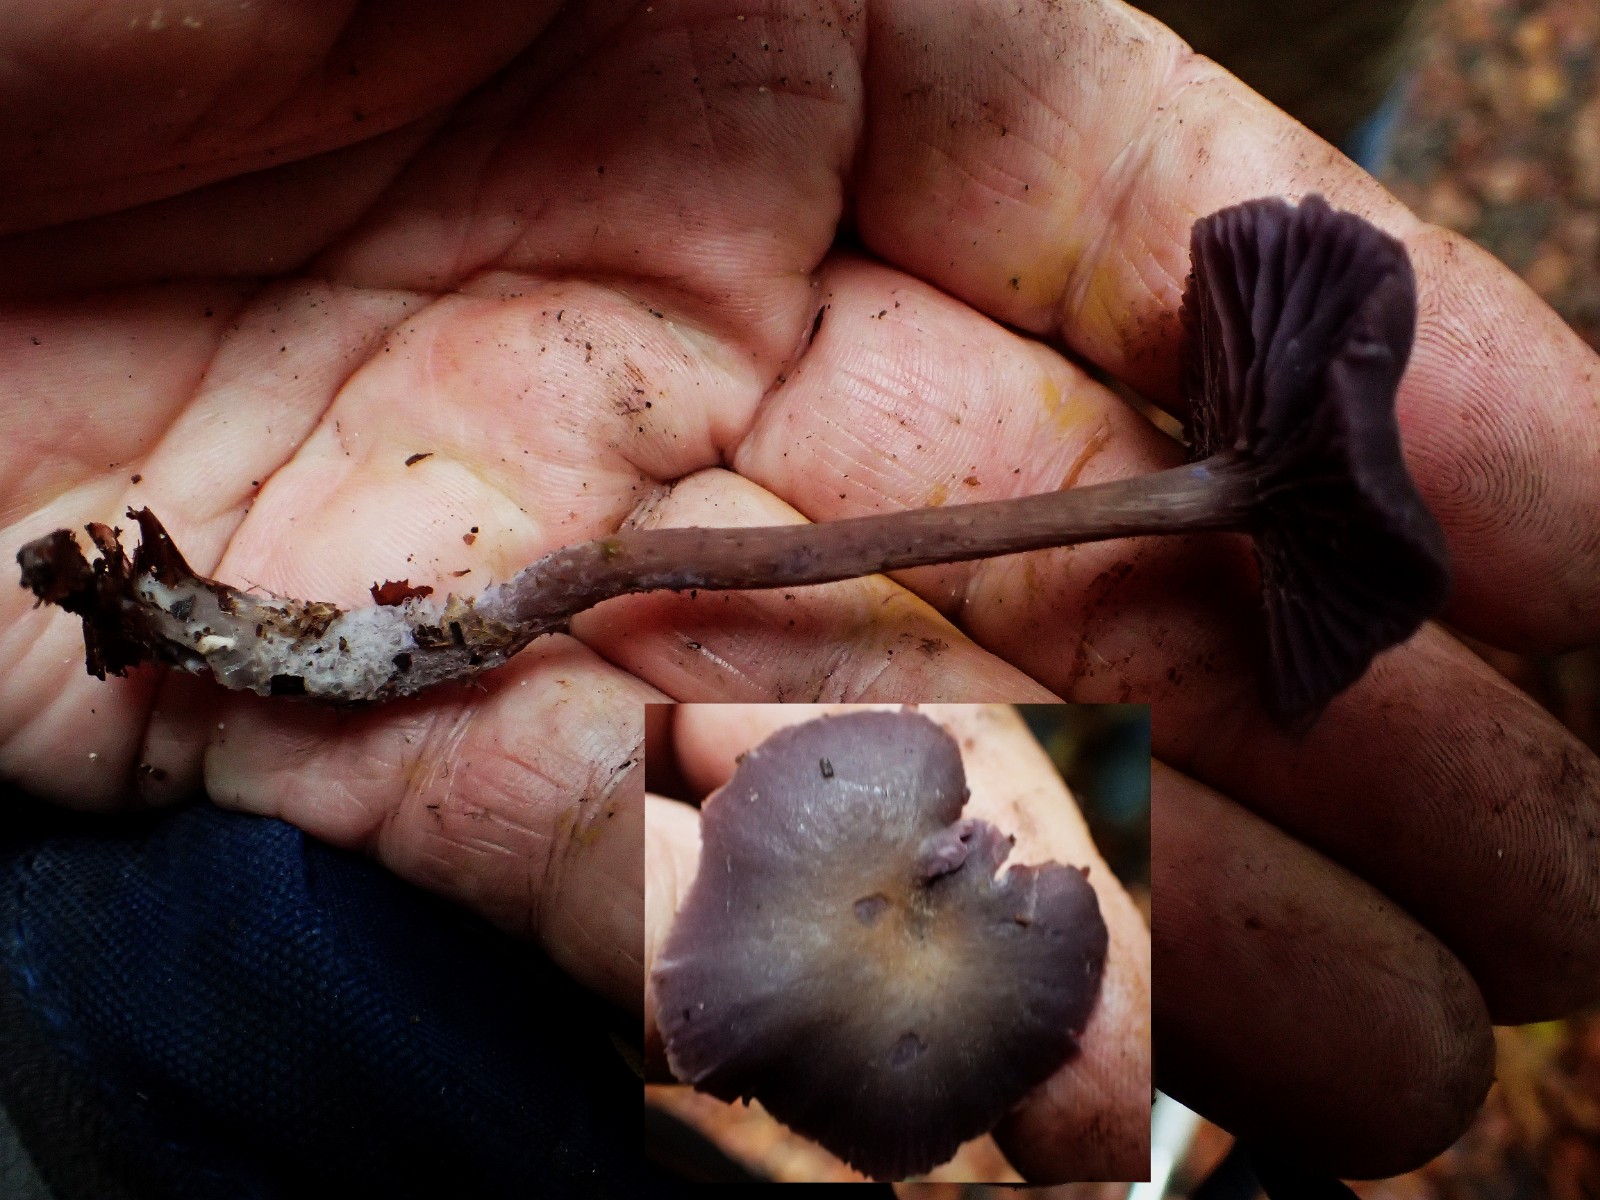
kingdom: Fungi
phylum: Basidiomycota
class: Agaricomycetes
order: Agaricales
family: Hydnangiaceae
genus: Laccaria
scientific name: Laccaria amethystina
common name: violet ametysthat
